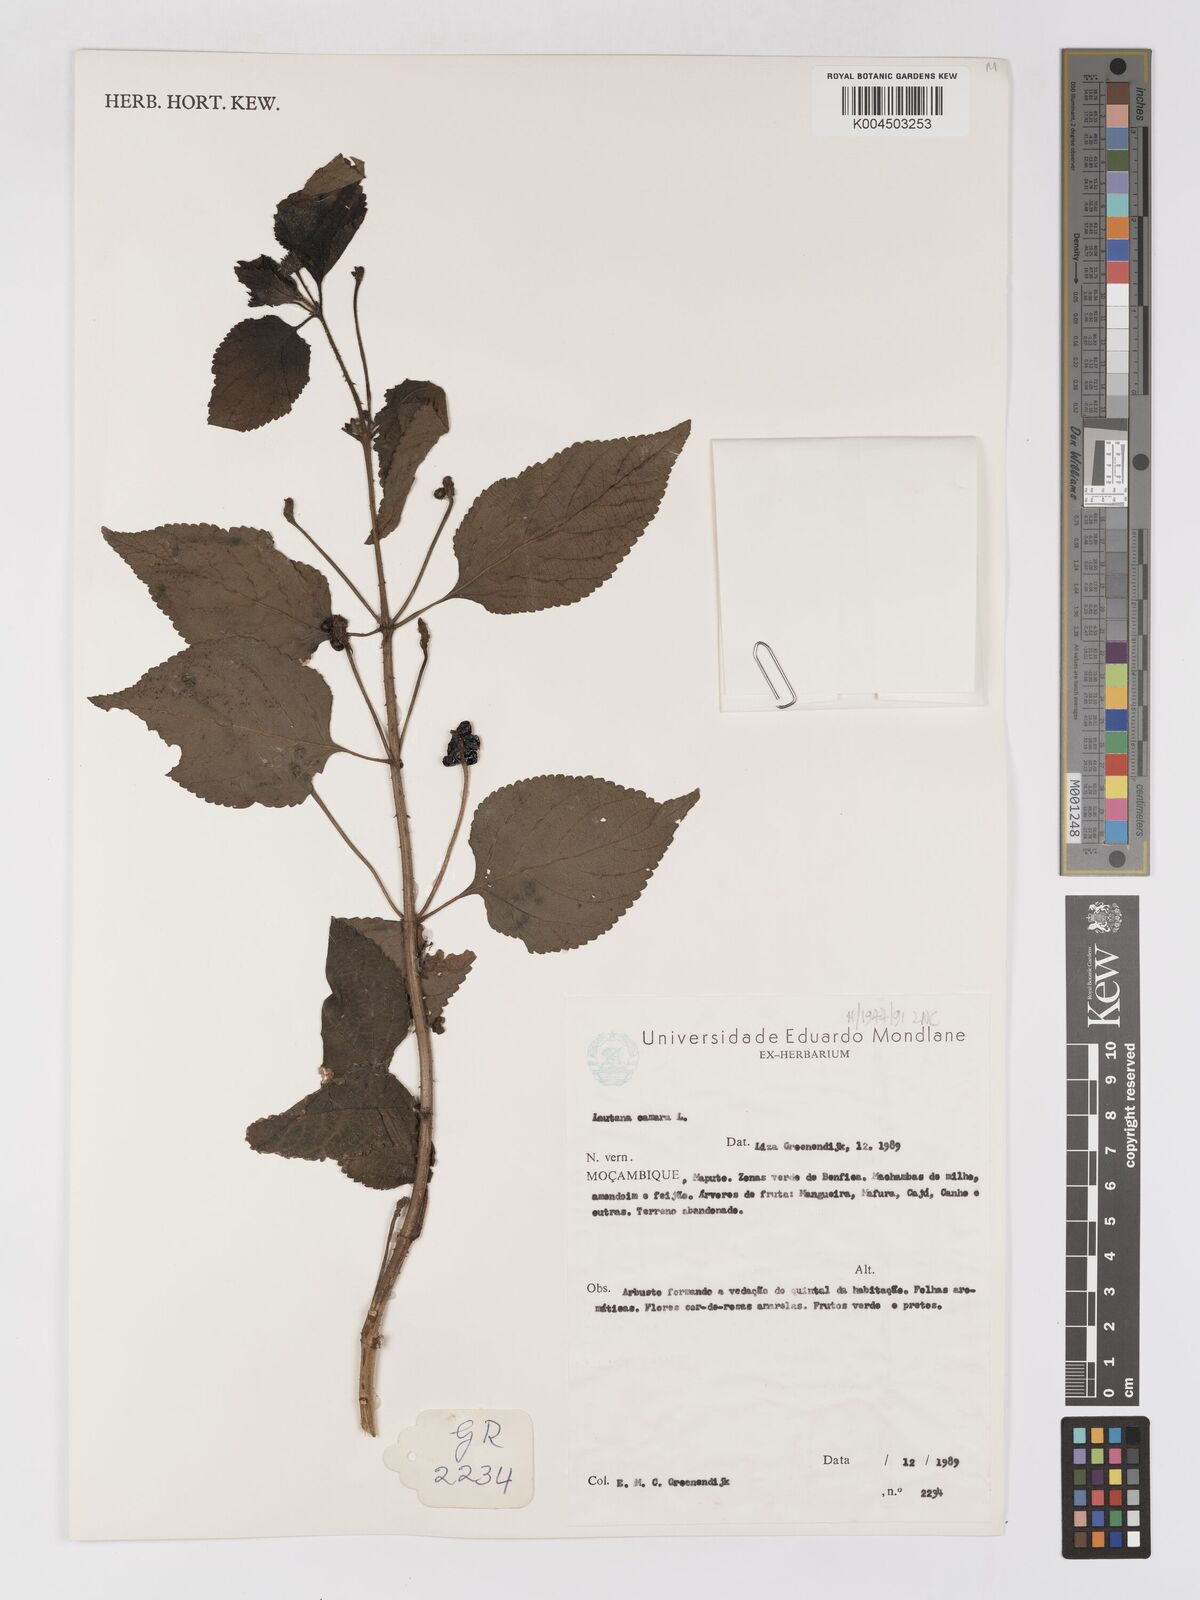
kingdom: Plantae
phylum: Tracheophyta
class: Magnoliopsida
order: Lamiales
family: Verbenaceae
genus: Lantana
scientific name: Lantana camara
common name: Lantana
